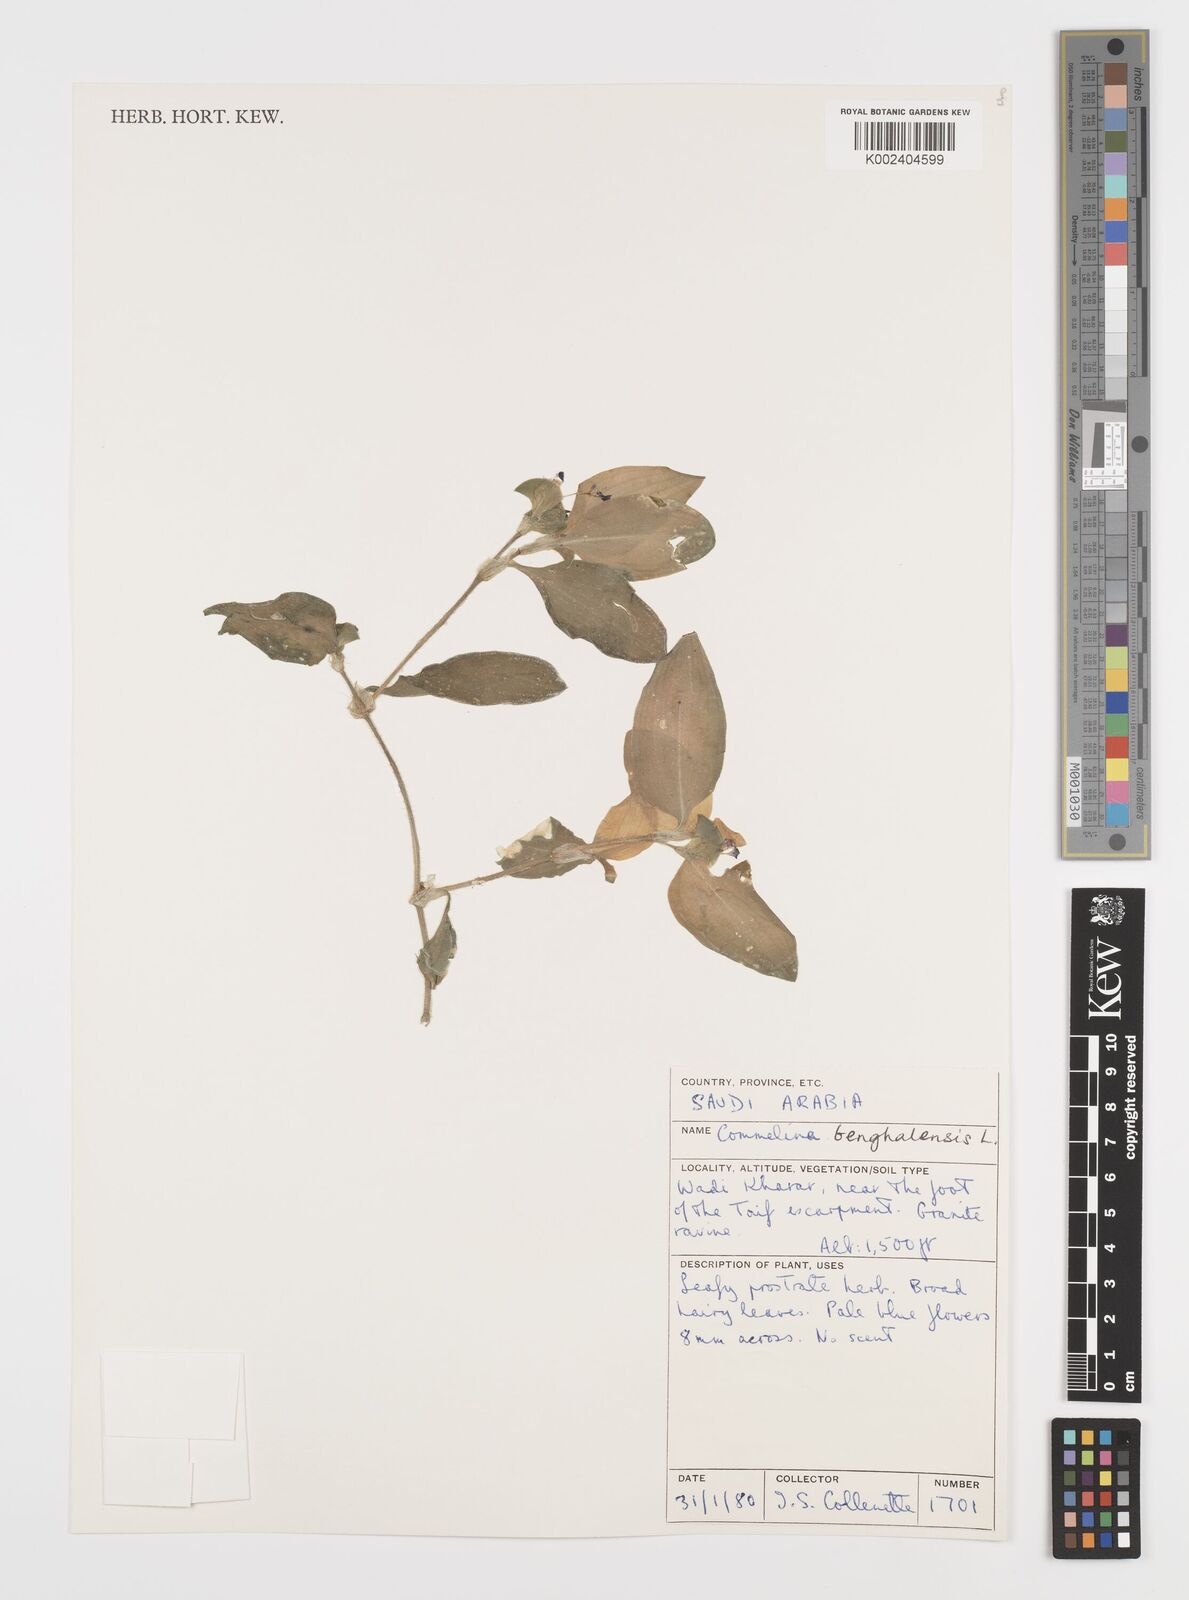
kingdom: Plantae
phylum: Tracheophyta
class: Liliopsida
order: Commelinales
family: Commelinaceae
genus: Commelina
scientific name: Commelina benghalensis
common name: Jio
